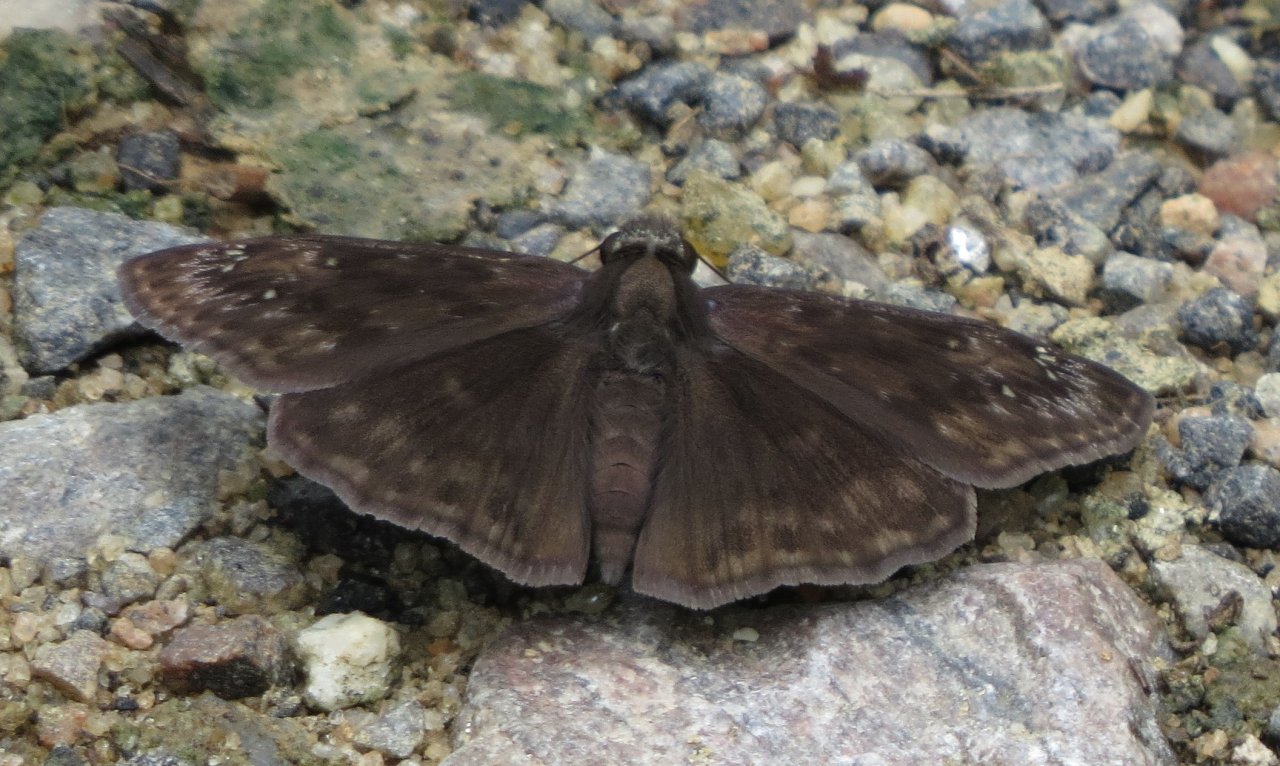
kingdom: Animalia
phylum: Arthropoda
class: Insecta
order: Lepidoptera
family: Hesperiidae
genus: Gesta
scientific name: Gesta
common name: Horace's Duskywing
